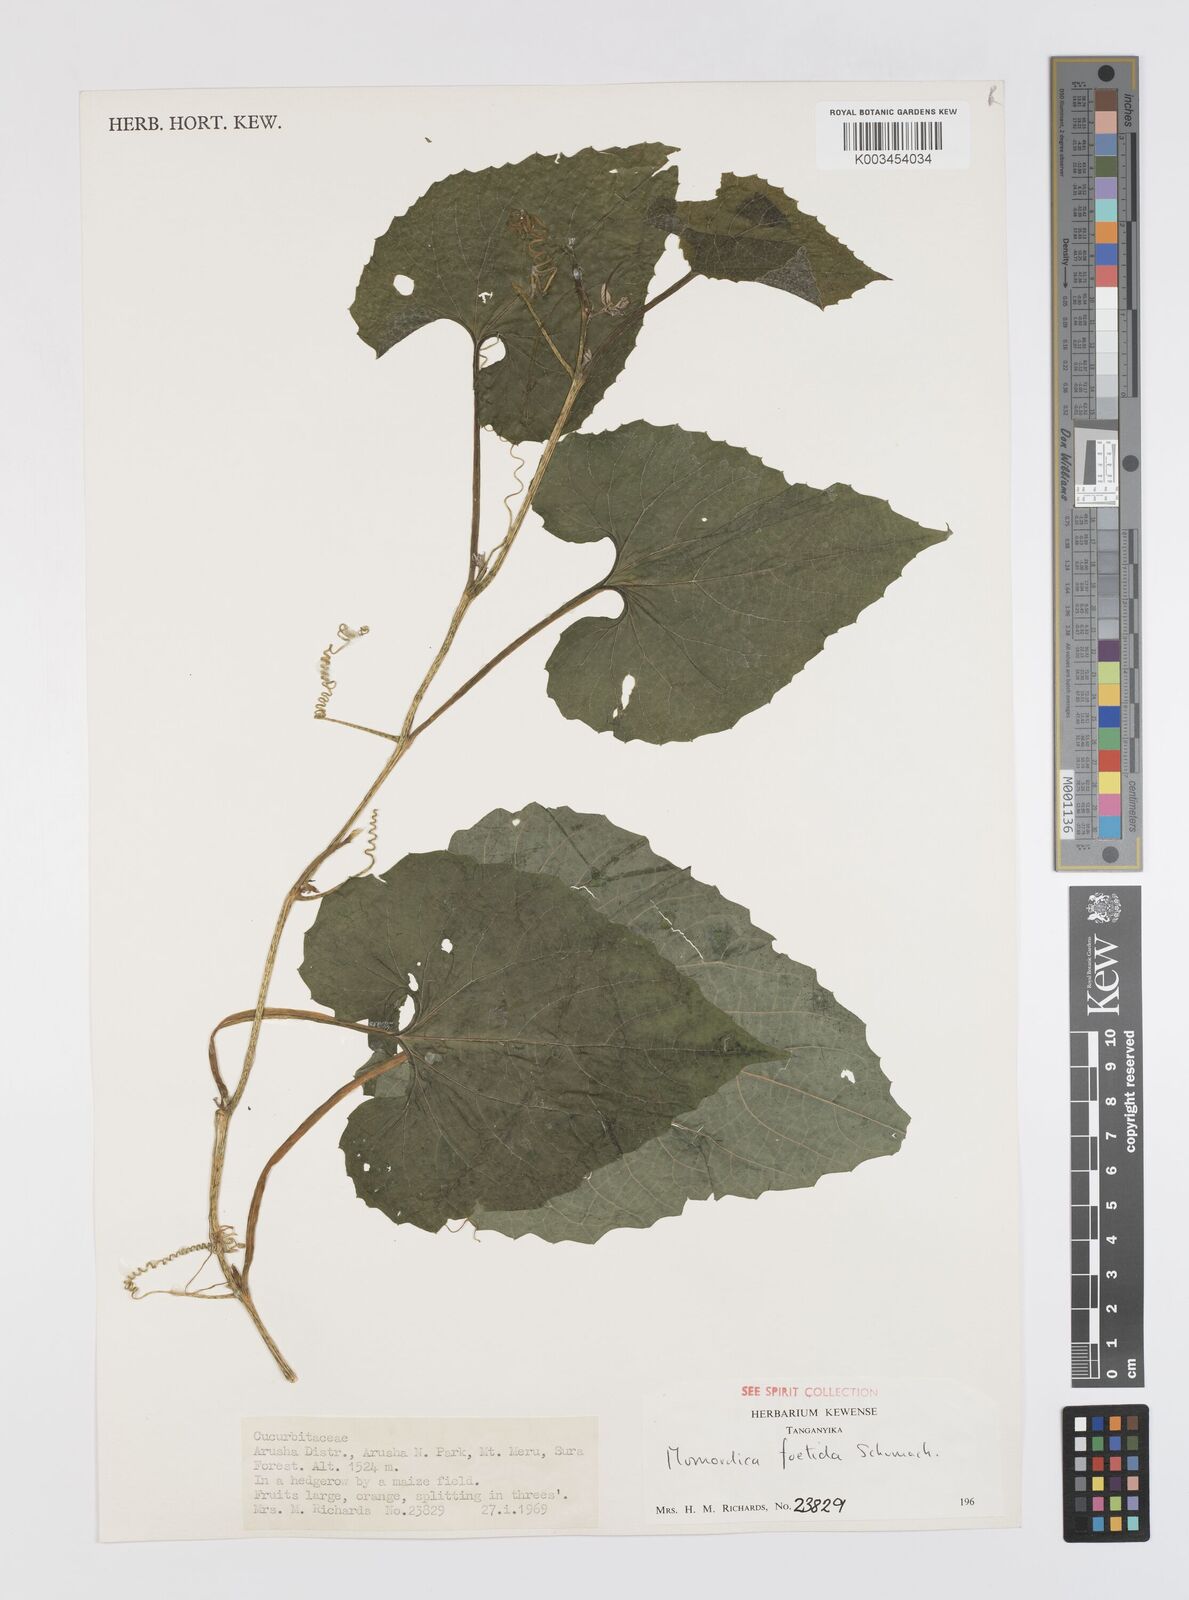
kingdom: Plantae
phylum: Tracheophyta
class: Magnoliopsida
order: Cucurbitales
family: Cucurbitaceae
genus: Momordica
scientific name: Momordica foetida
